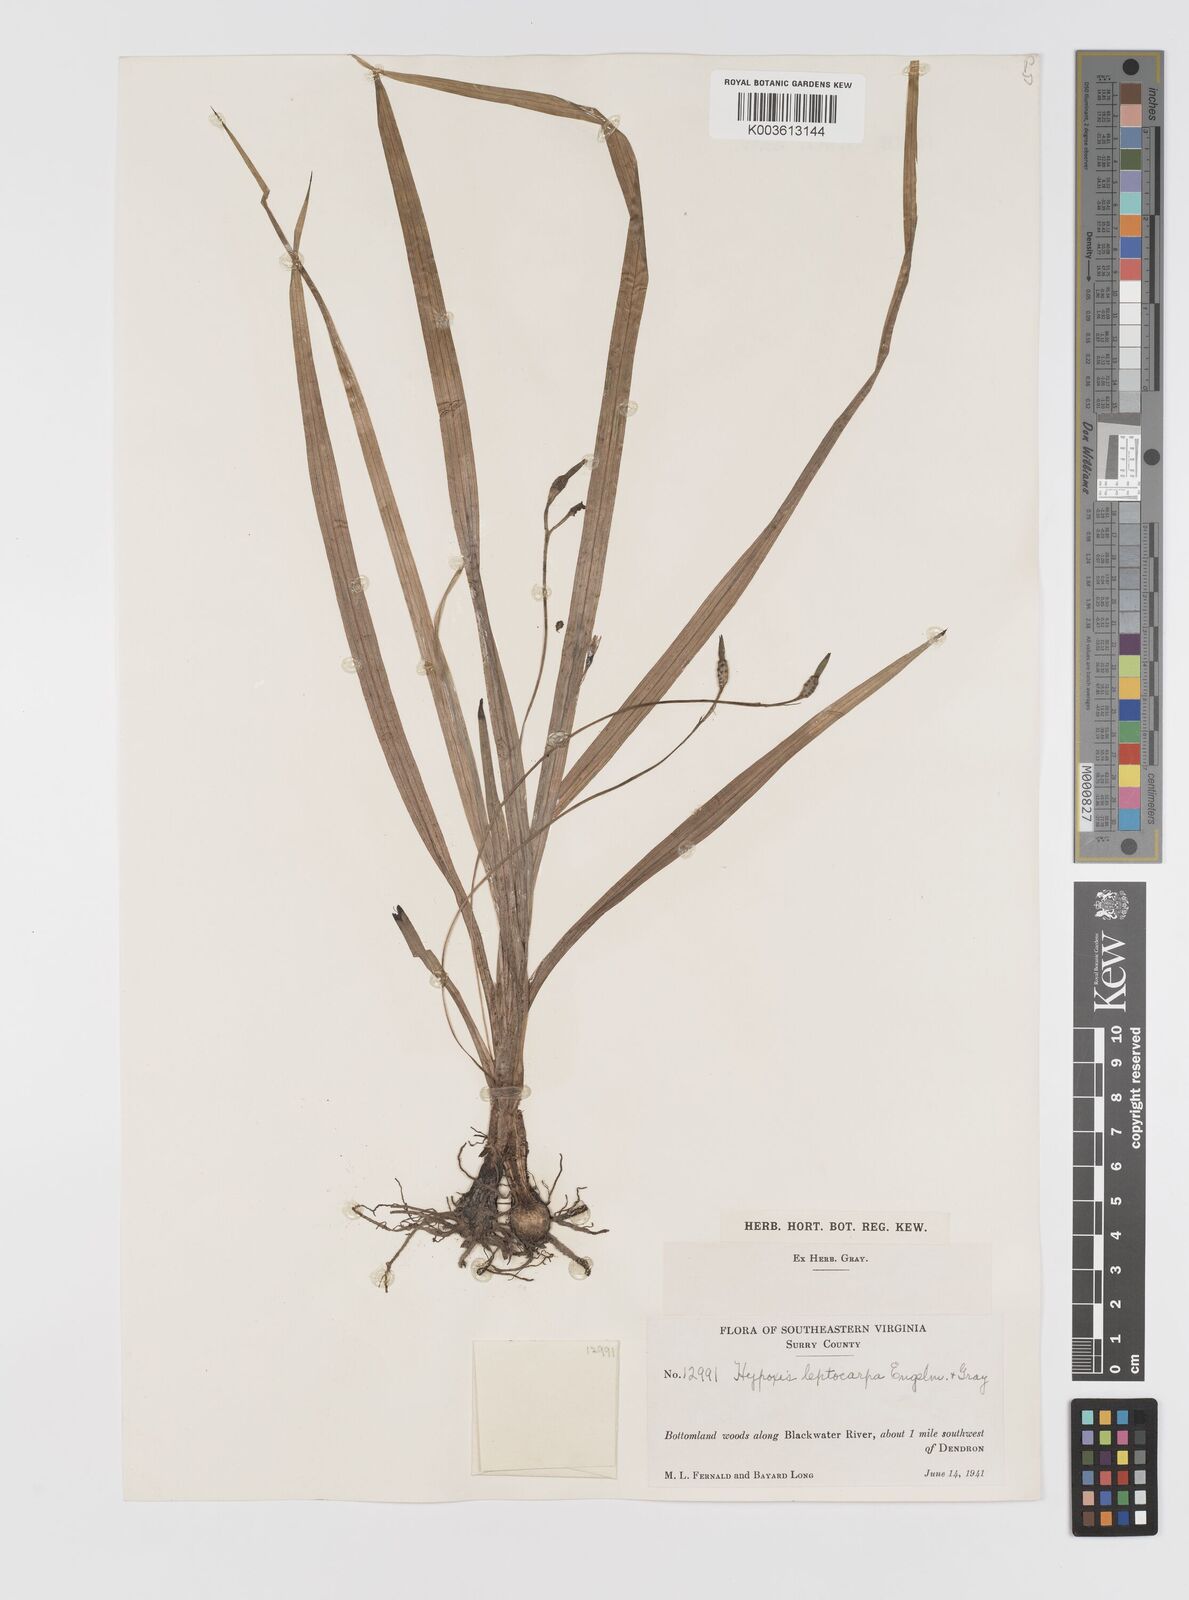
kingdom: Plantae
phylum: Tracheophyta
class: Liliopsida
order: Asparagales
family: Hypoxidaceae
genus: Hypoxis
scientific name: Hypoxis curtissii
